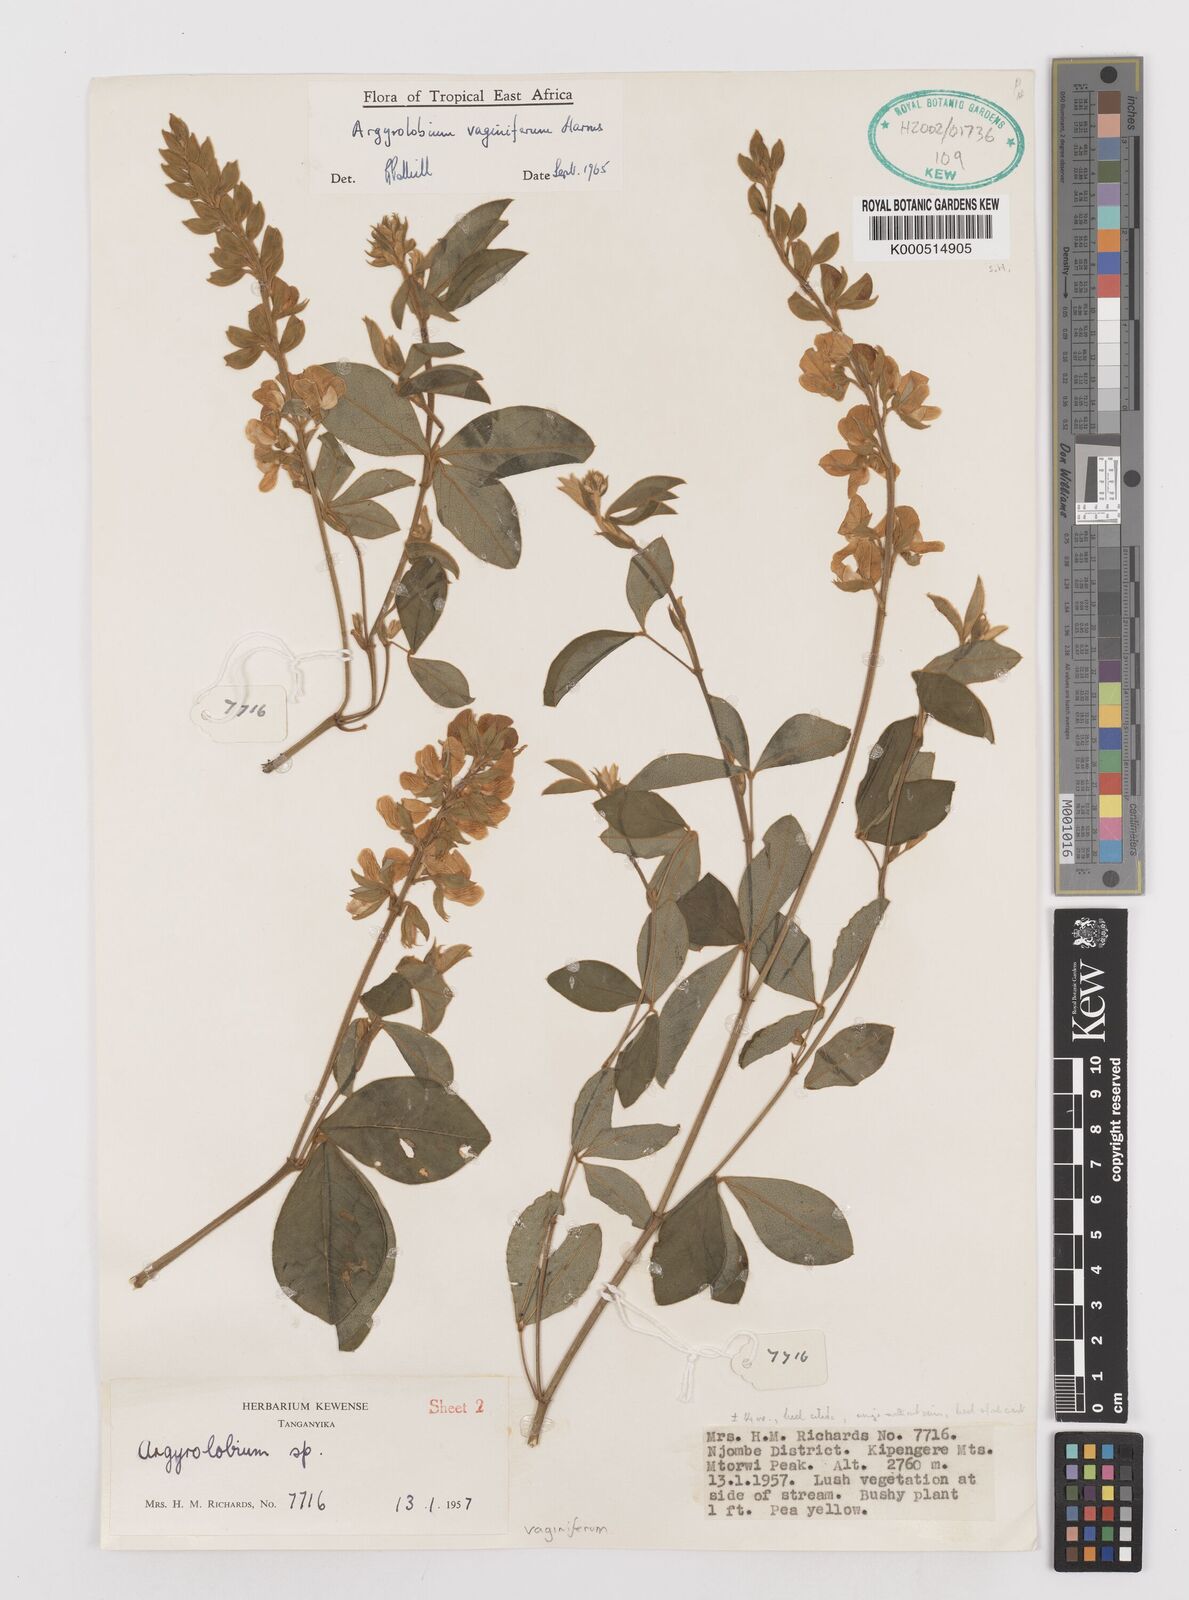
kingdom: Plantae
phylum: Tracheophyta
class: Magnoliopsida
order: Fabales
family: Fabaceae
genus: Argyrolobium
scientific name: Argyrolobium vaginiferum
